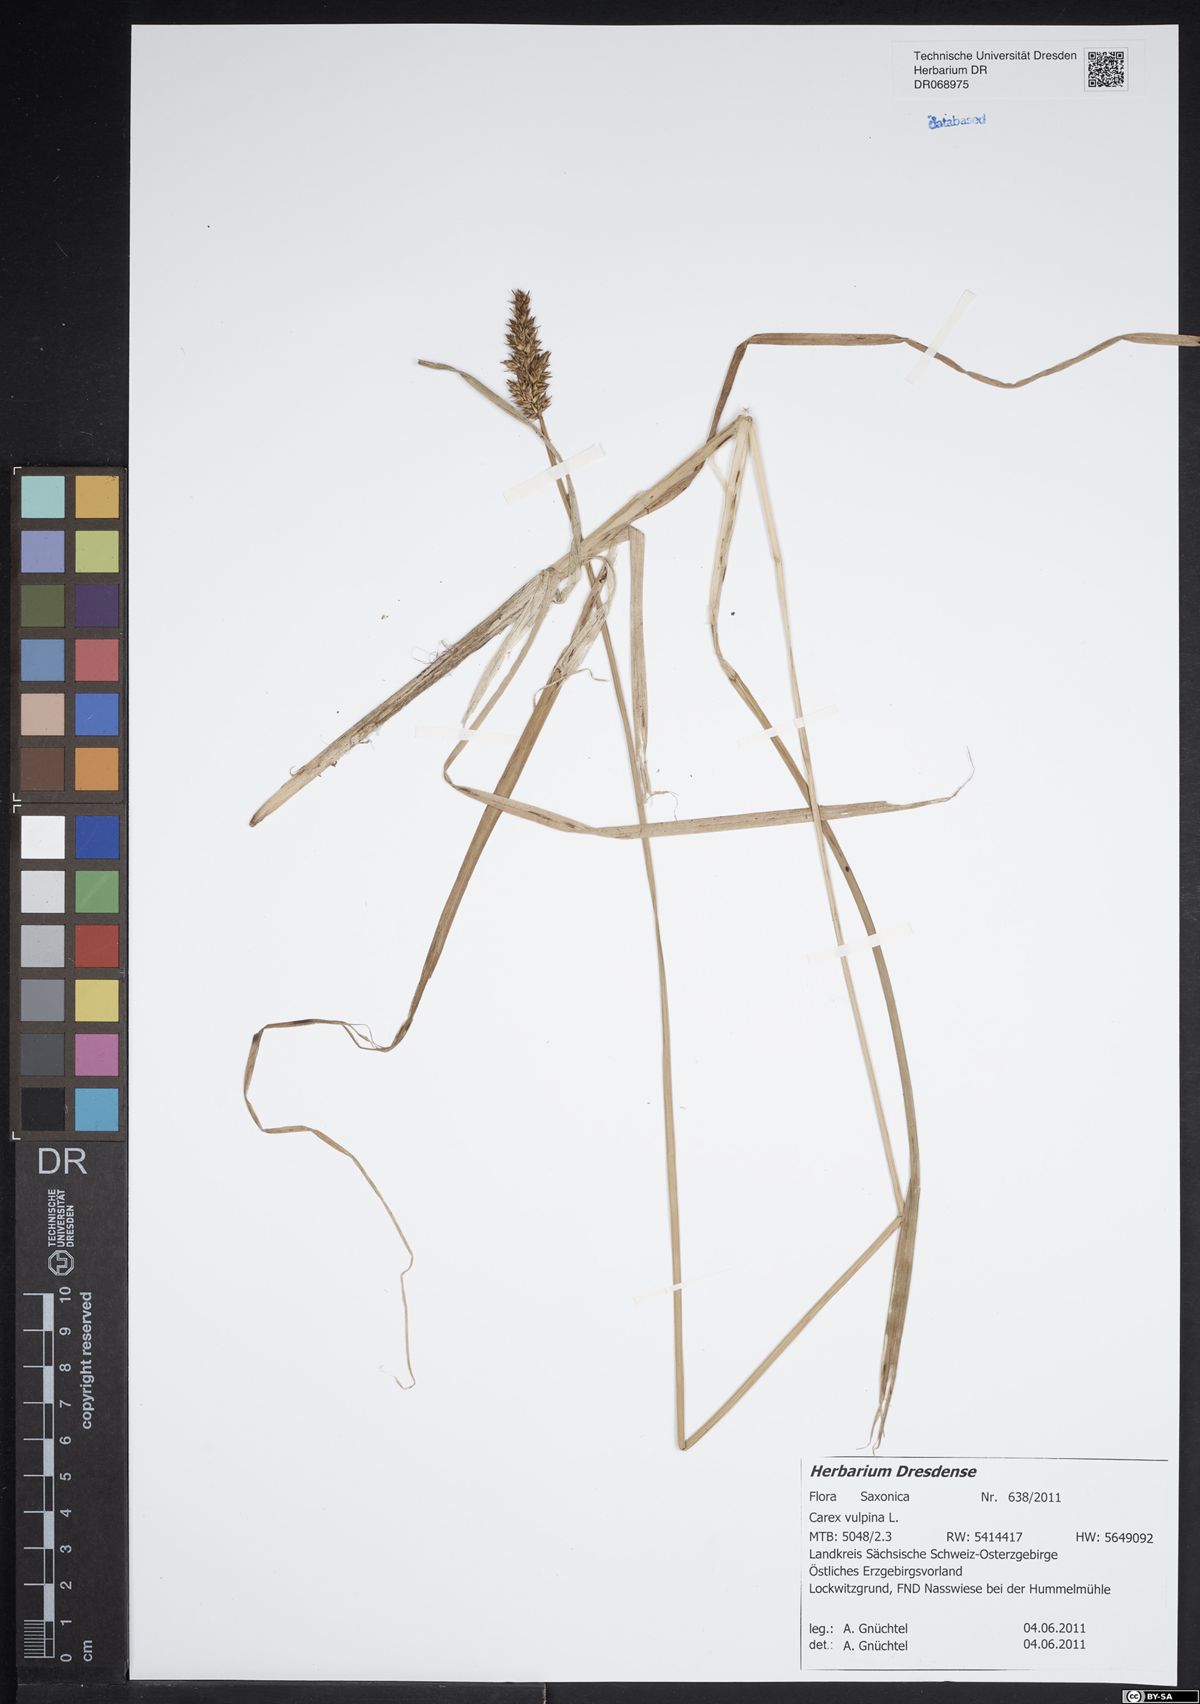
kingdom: Plantae
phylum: Tracheophyta
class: Liliopsida
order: Poales
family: Cyperaceae
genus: Carex
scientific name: Carex vulpina
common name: True fox-sedge
